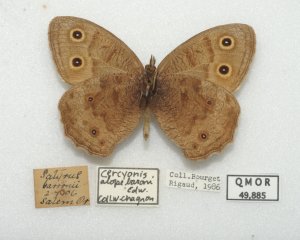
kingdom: Animalia
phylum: Arthropoda
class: Insecta
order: Lepidoptera
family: Nymphalidae
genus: Cercyonis
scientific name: Cercyonis pegala
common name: Common Wood-Nymph
